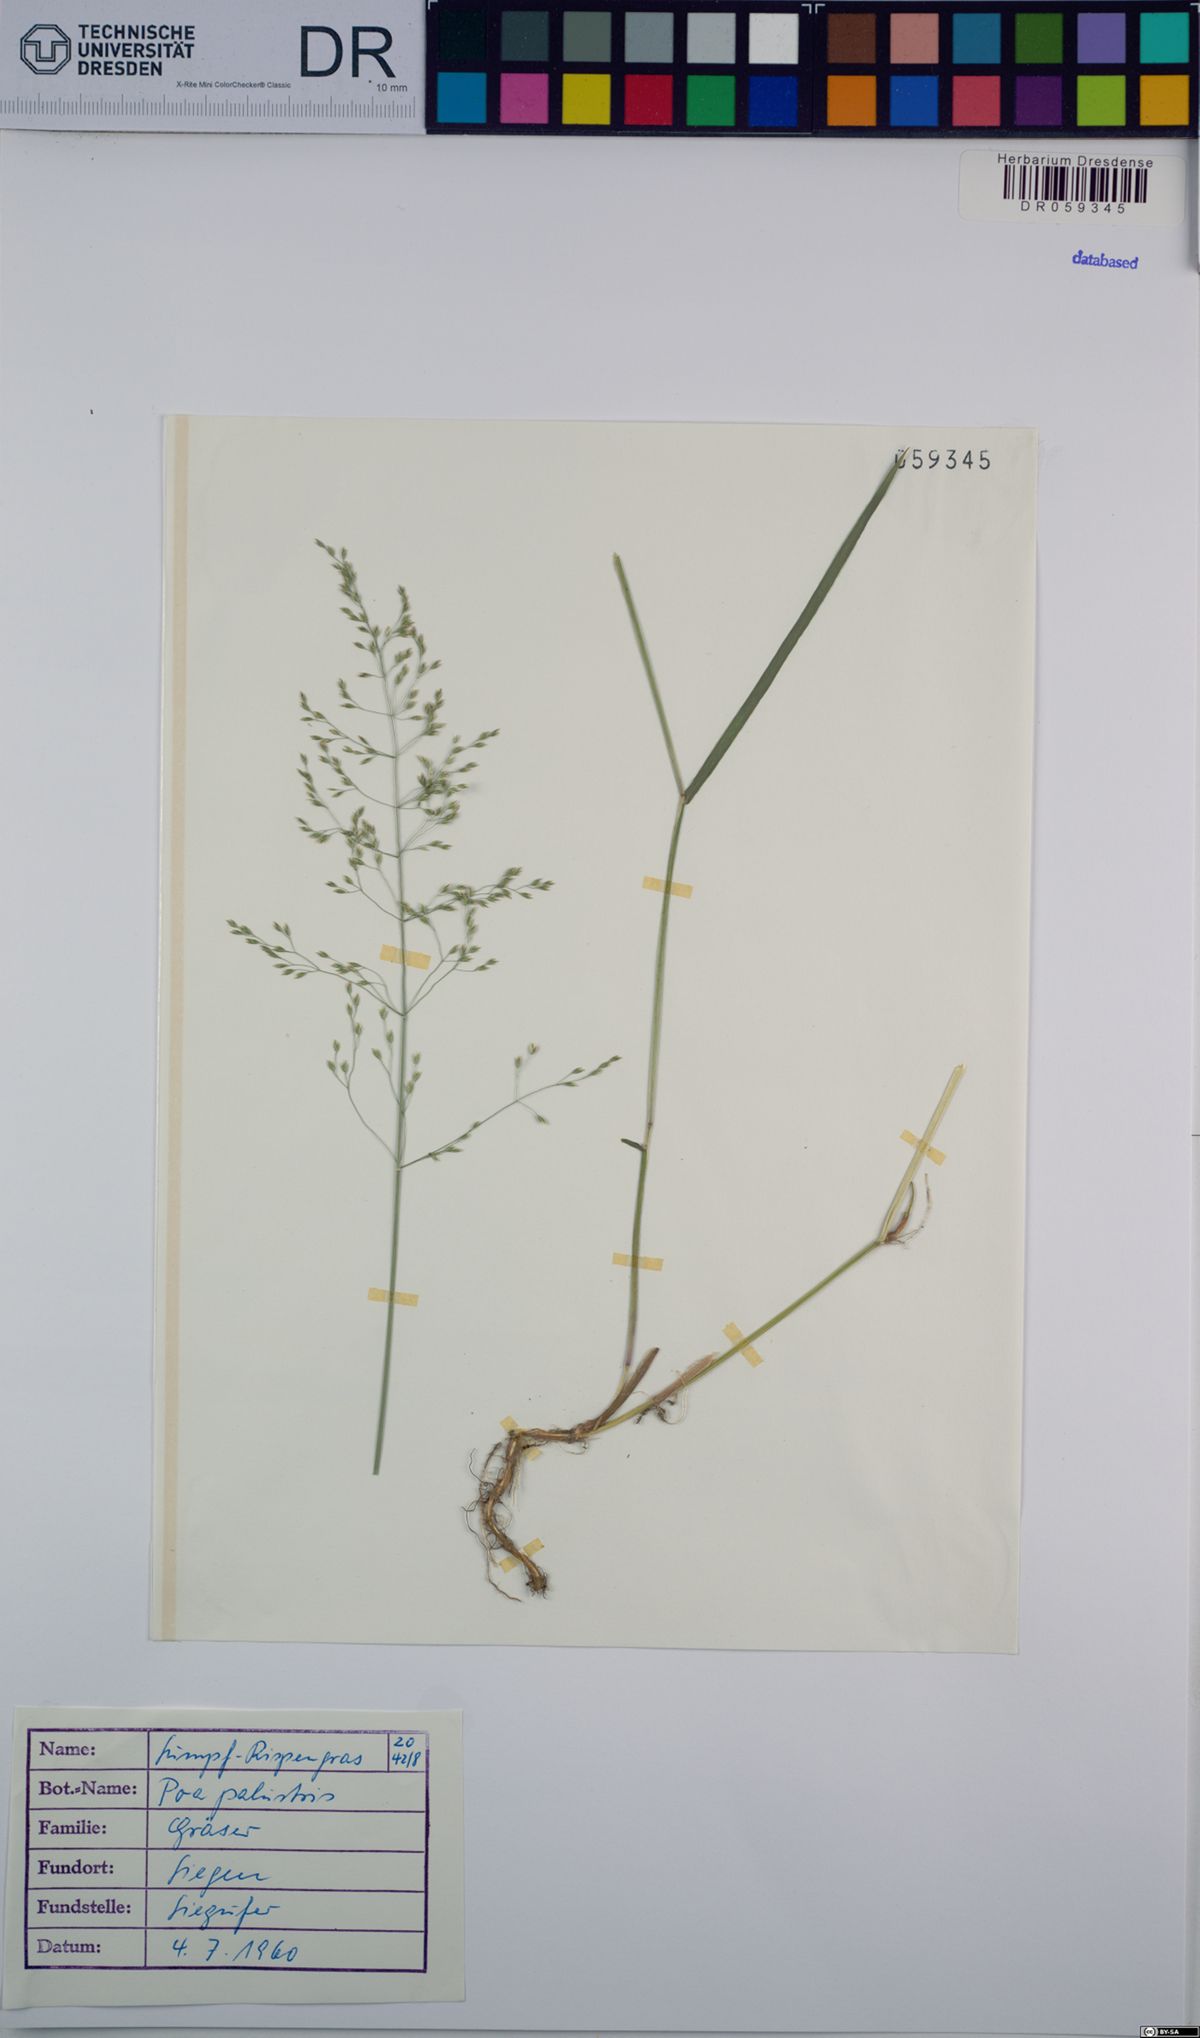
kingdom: Plantae
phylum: Tracheophyta
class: Liliopsida
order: Poales
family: Poaceae
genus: Poa
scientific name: Poa palustris
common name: Swamp meadow-grass
